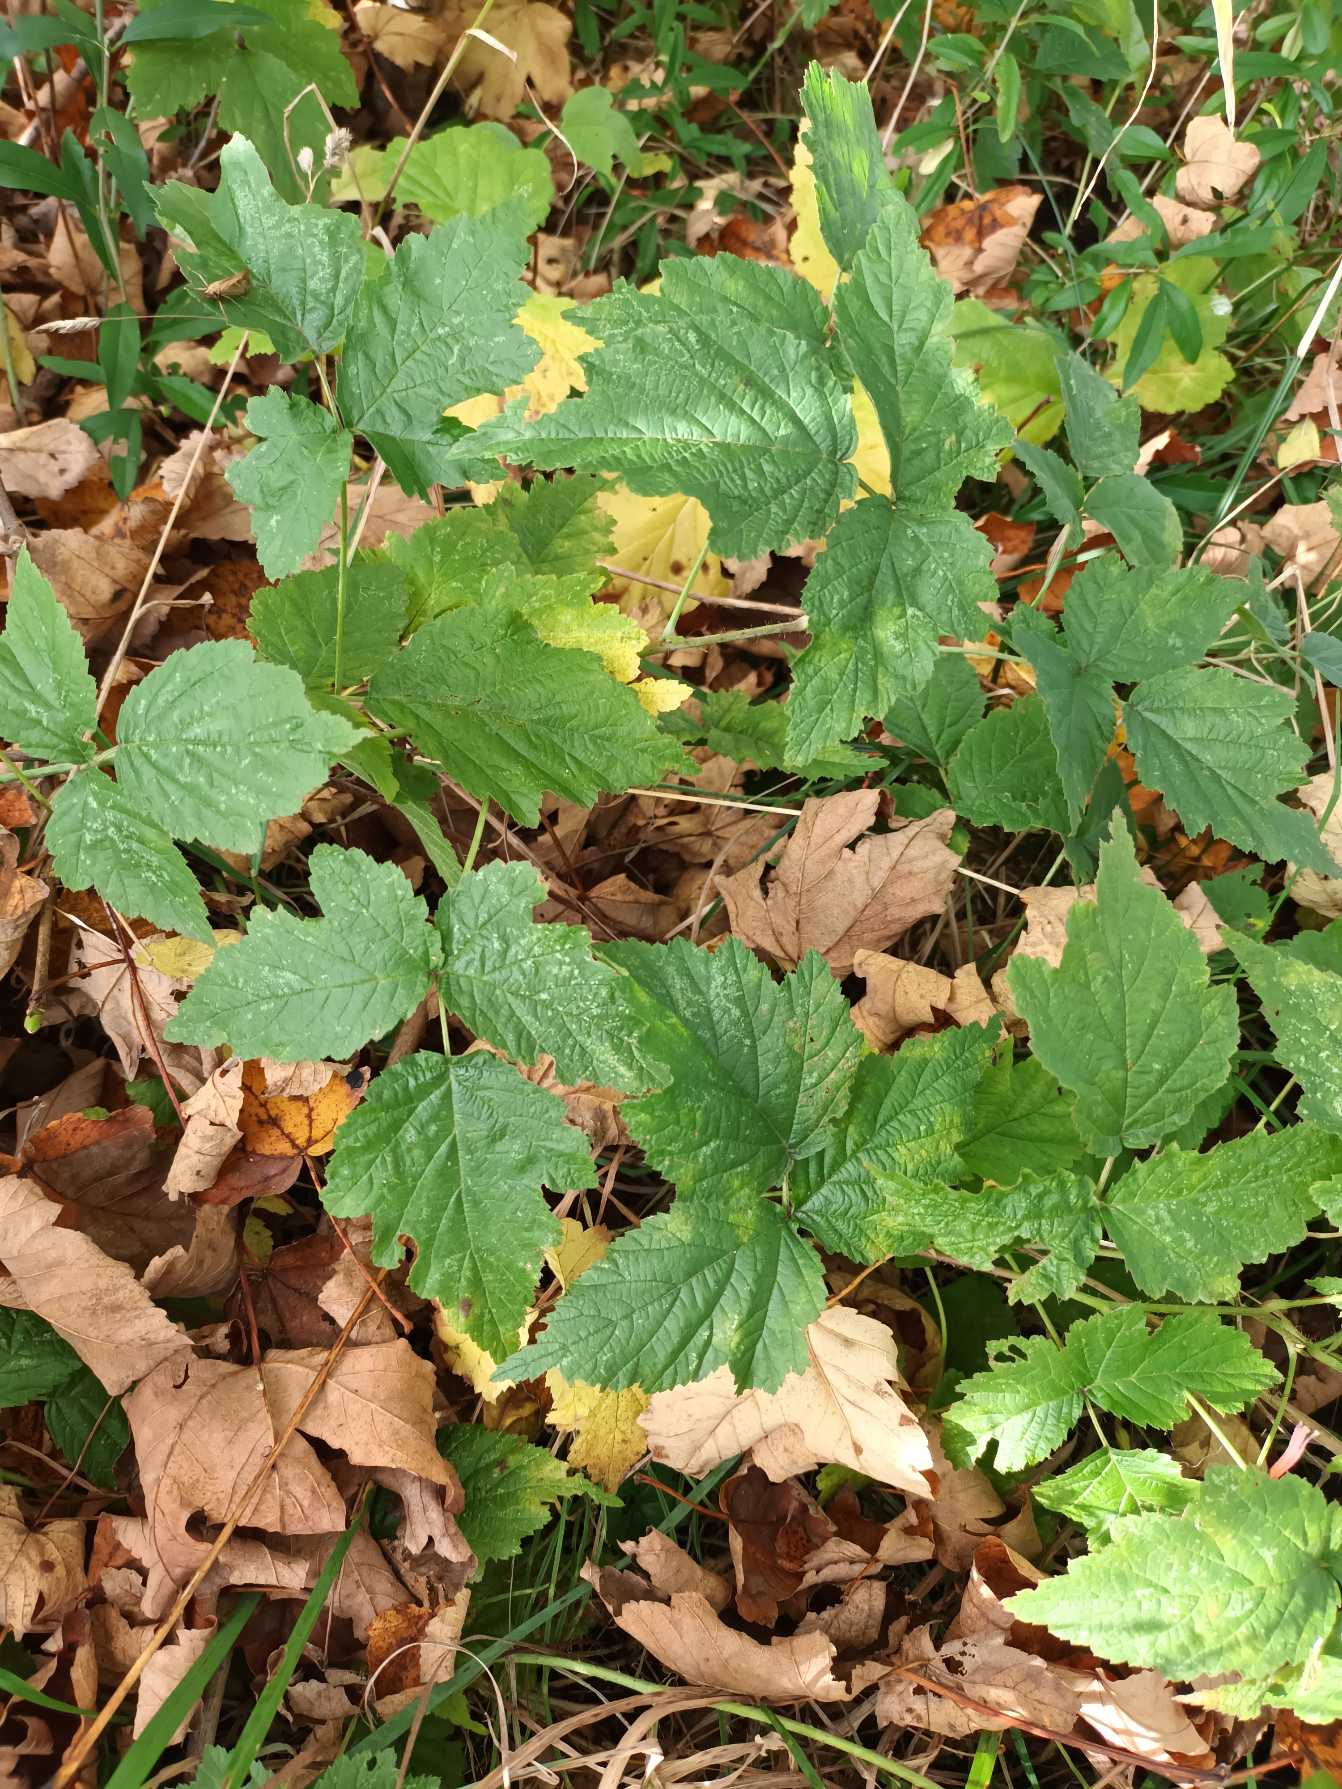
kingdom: Plantae
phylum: Tracheophyta
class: Magnoliopsida
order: Rosales
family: Rosaceae
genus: Rubus
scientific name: Rubus caesius
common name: Korbær
